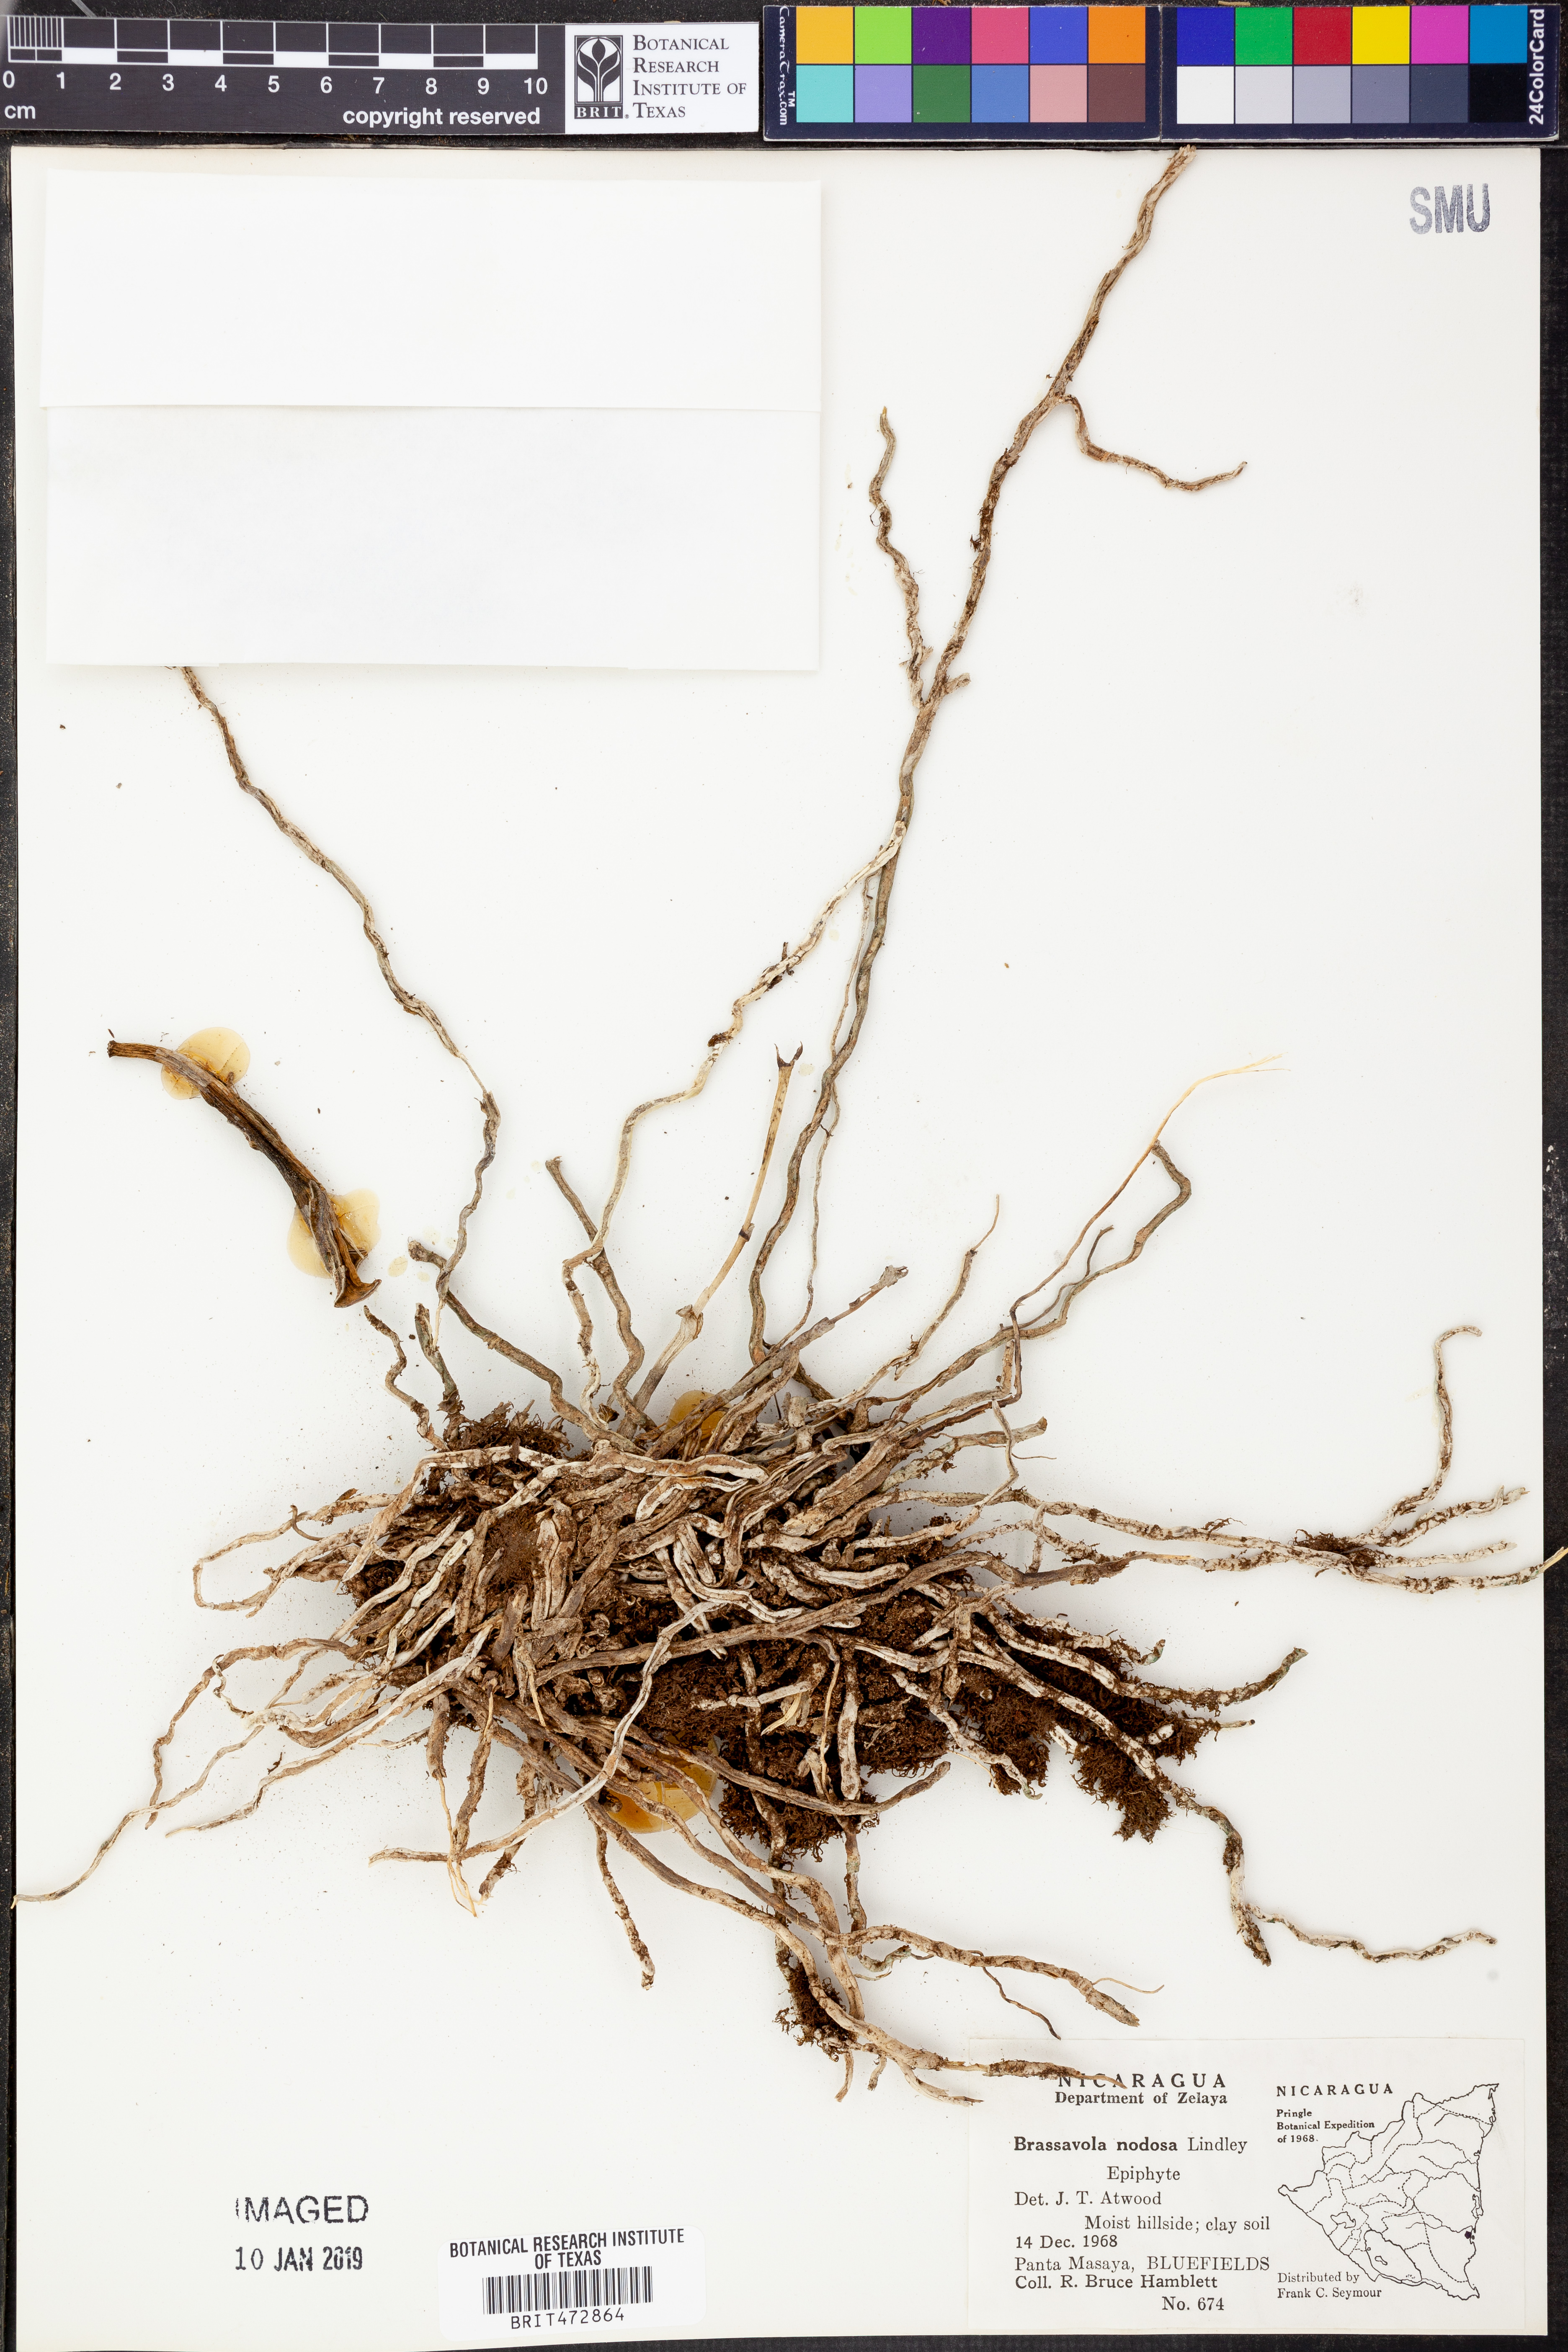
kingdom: Plantae
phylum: Tracheophyta
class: Liliopsida
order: Asparagales
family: Orchidaceae
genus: Brassavola
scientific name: Brassavola nodosa
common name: Lady of the night
